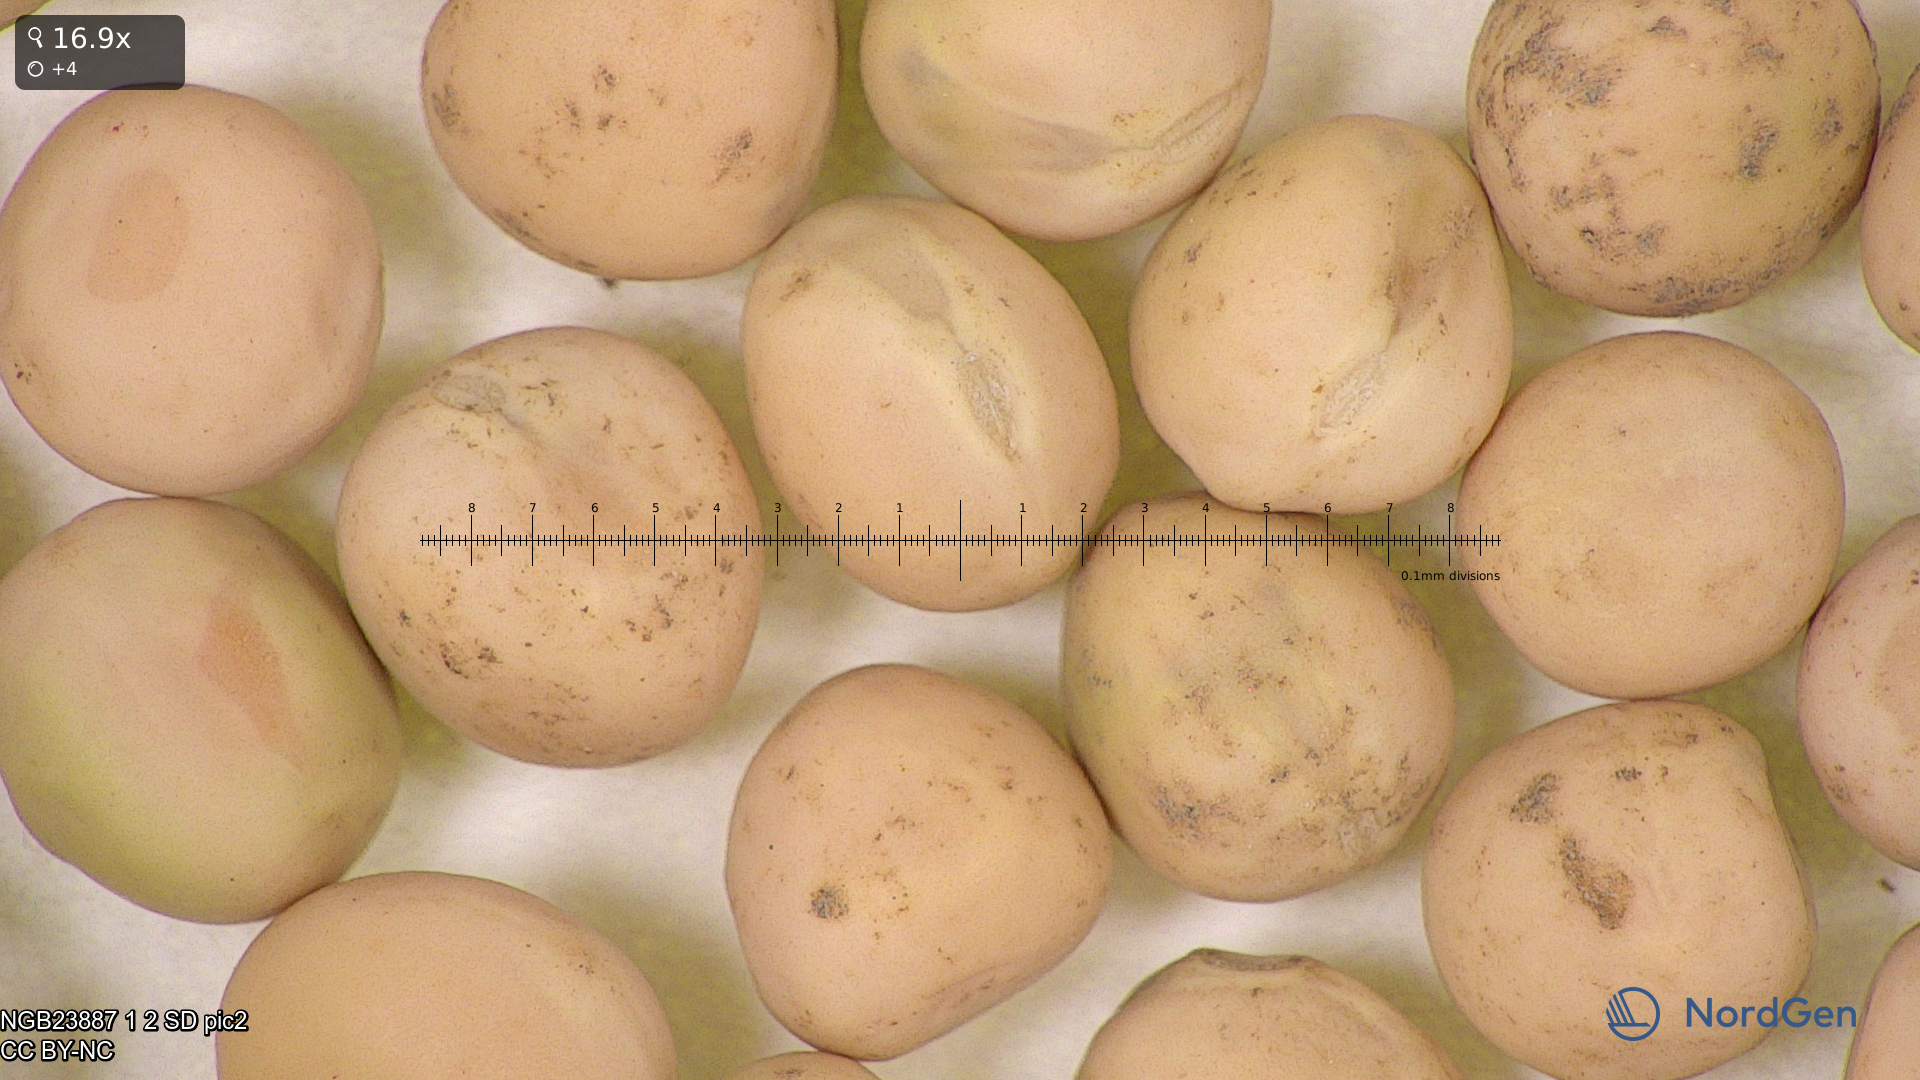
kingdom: Plantae
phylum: Tracheophyta
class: Magnoliopsida
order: Fabales
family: Fabaceae
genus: Lathyrus
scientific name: Lathyrus oleraceus
